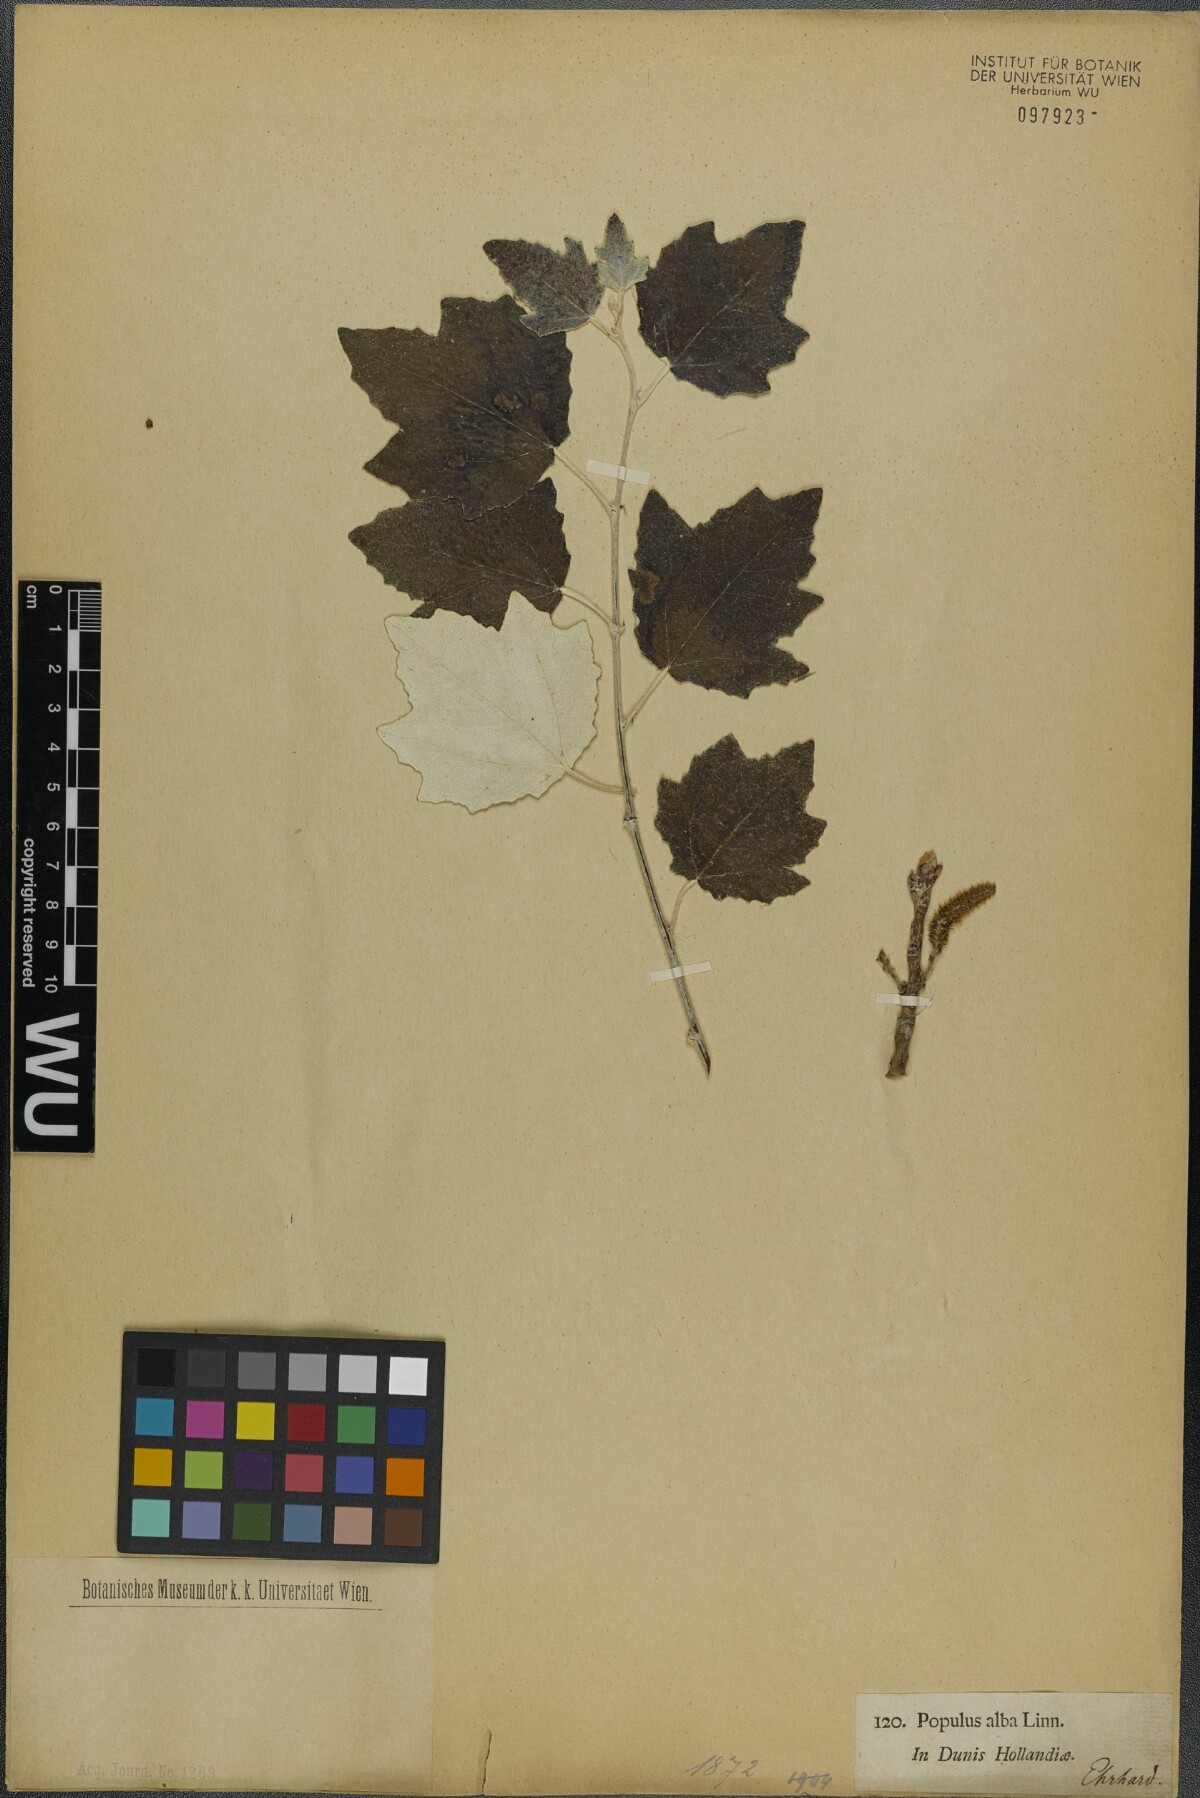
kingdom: Plantae
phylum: Tracheophyta
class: Magnoliopsida
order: Malpighiales
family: Salicaceae
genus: Populus
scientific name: Populus alba
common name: White poplar
